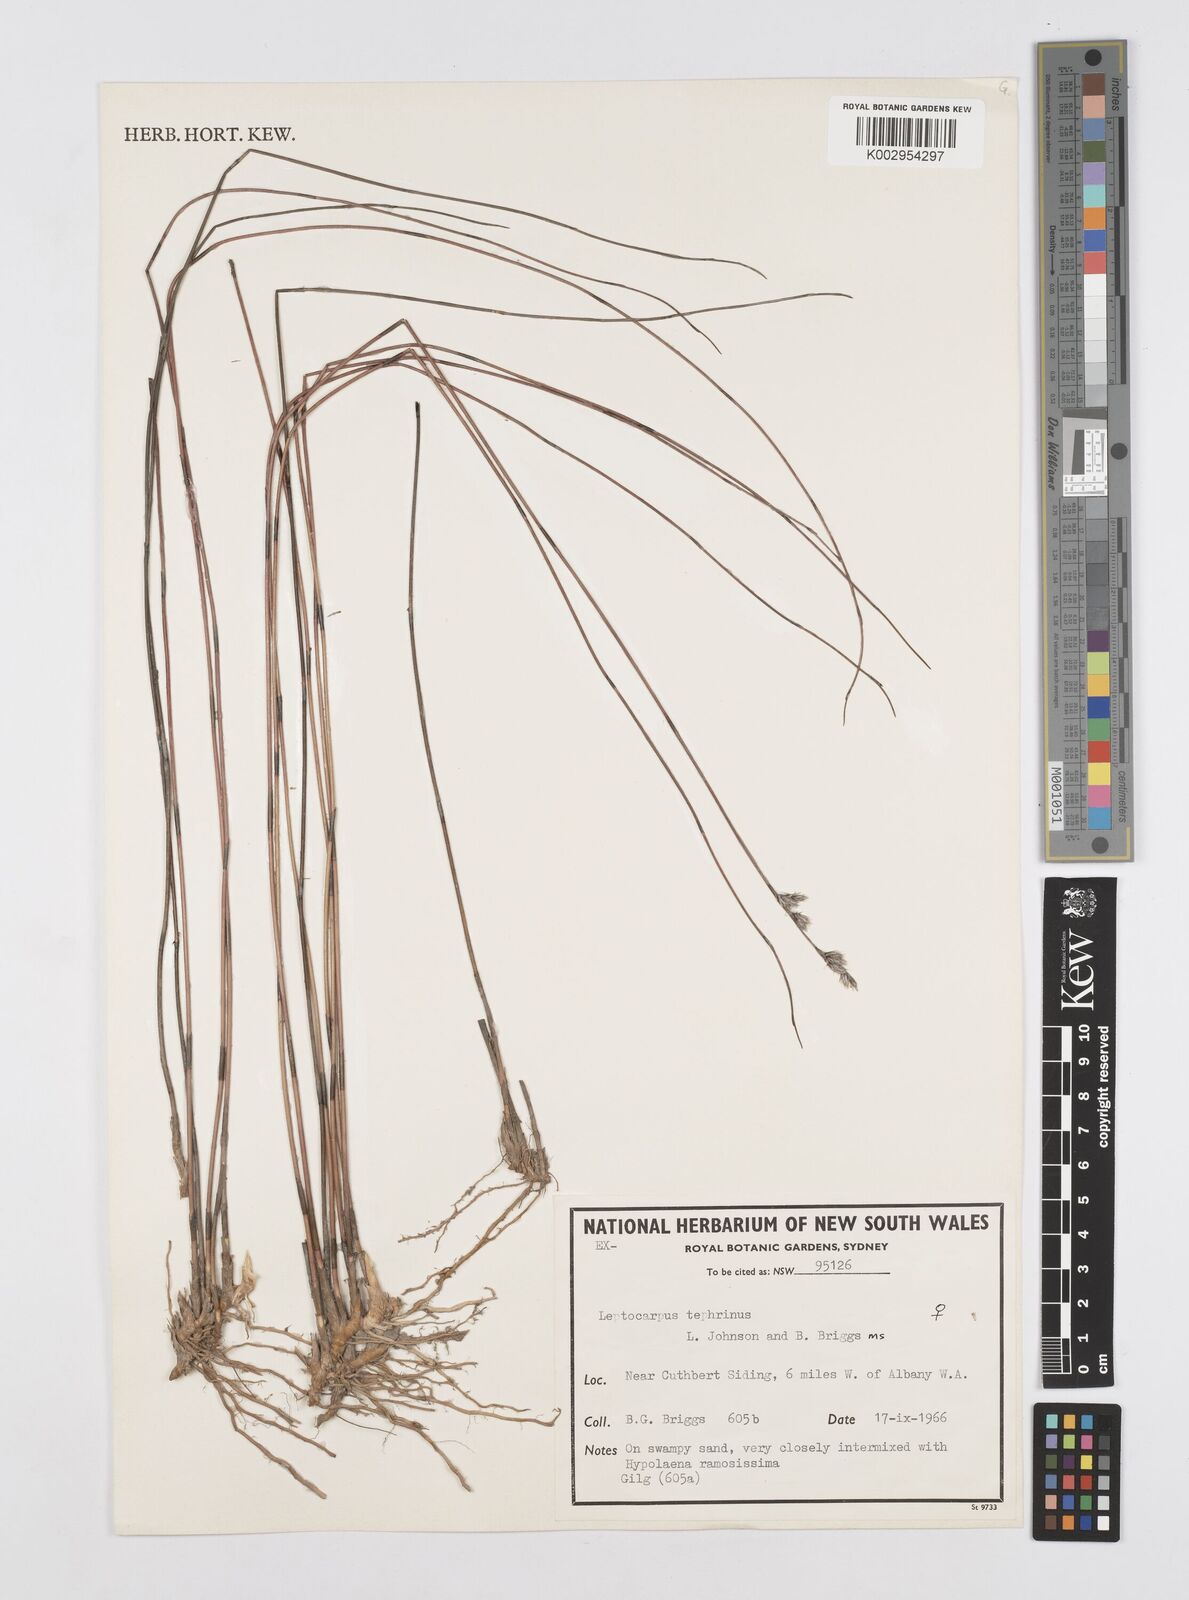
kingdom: Plantae
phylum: Tracheophyta
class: Liliopsida
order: Poales
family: Restionaceae
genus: Leptocarpus
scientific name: Leptocarpus tephrinus
